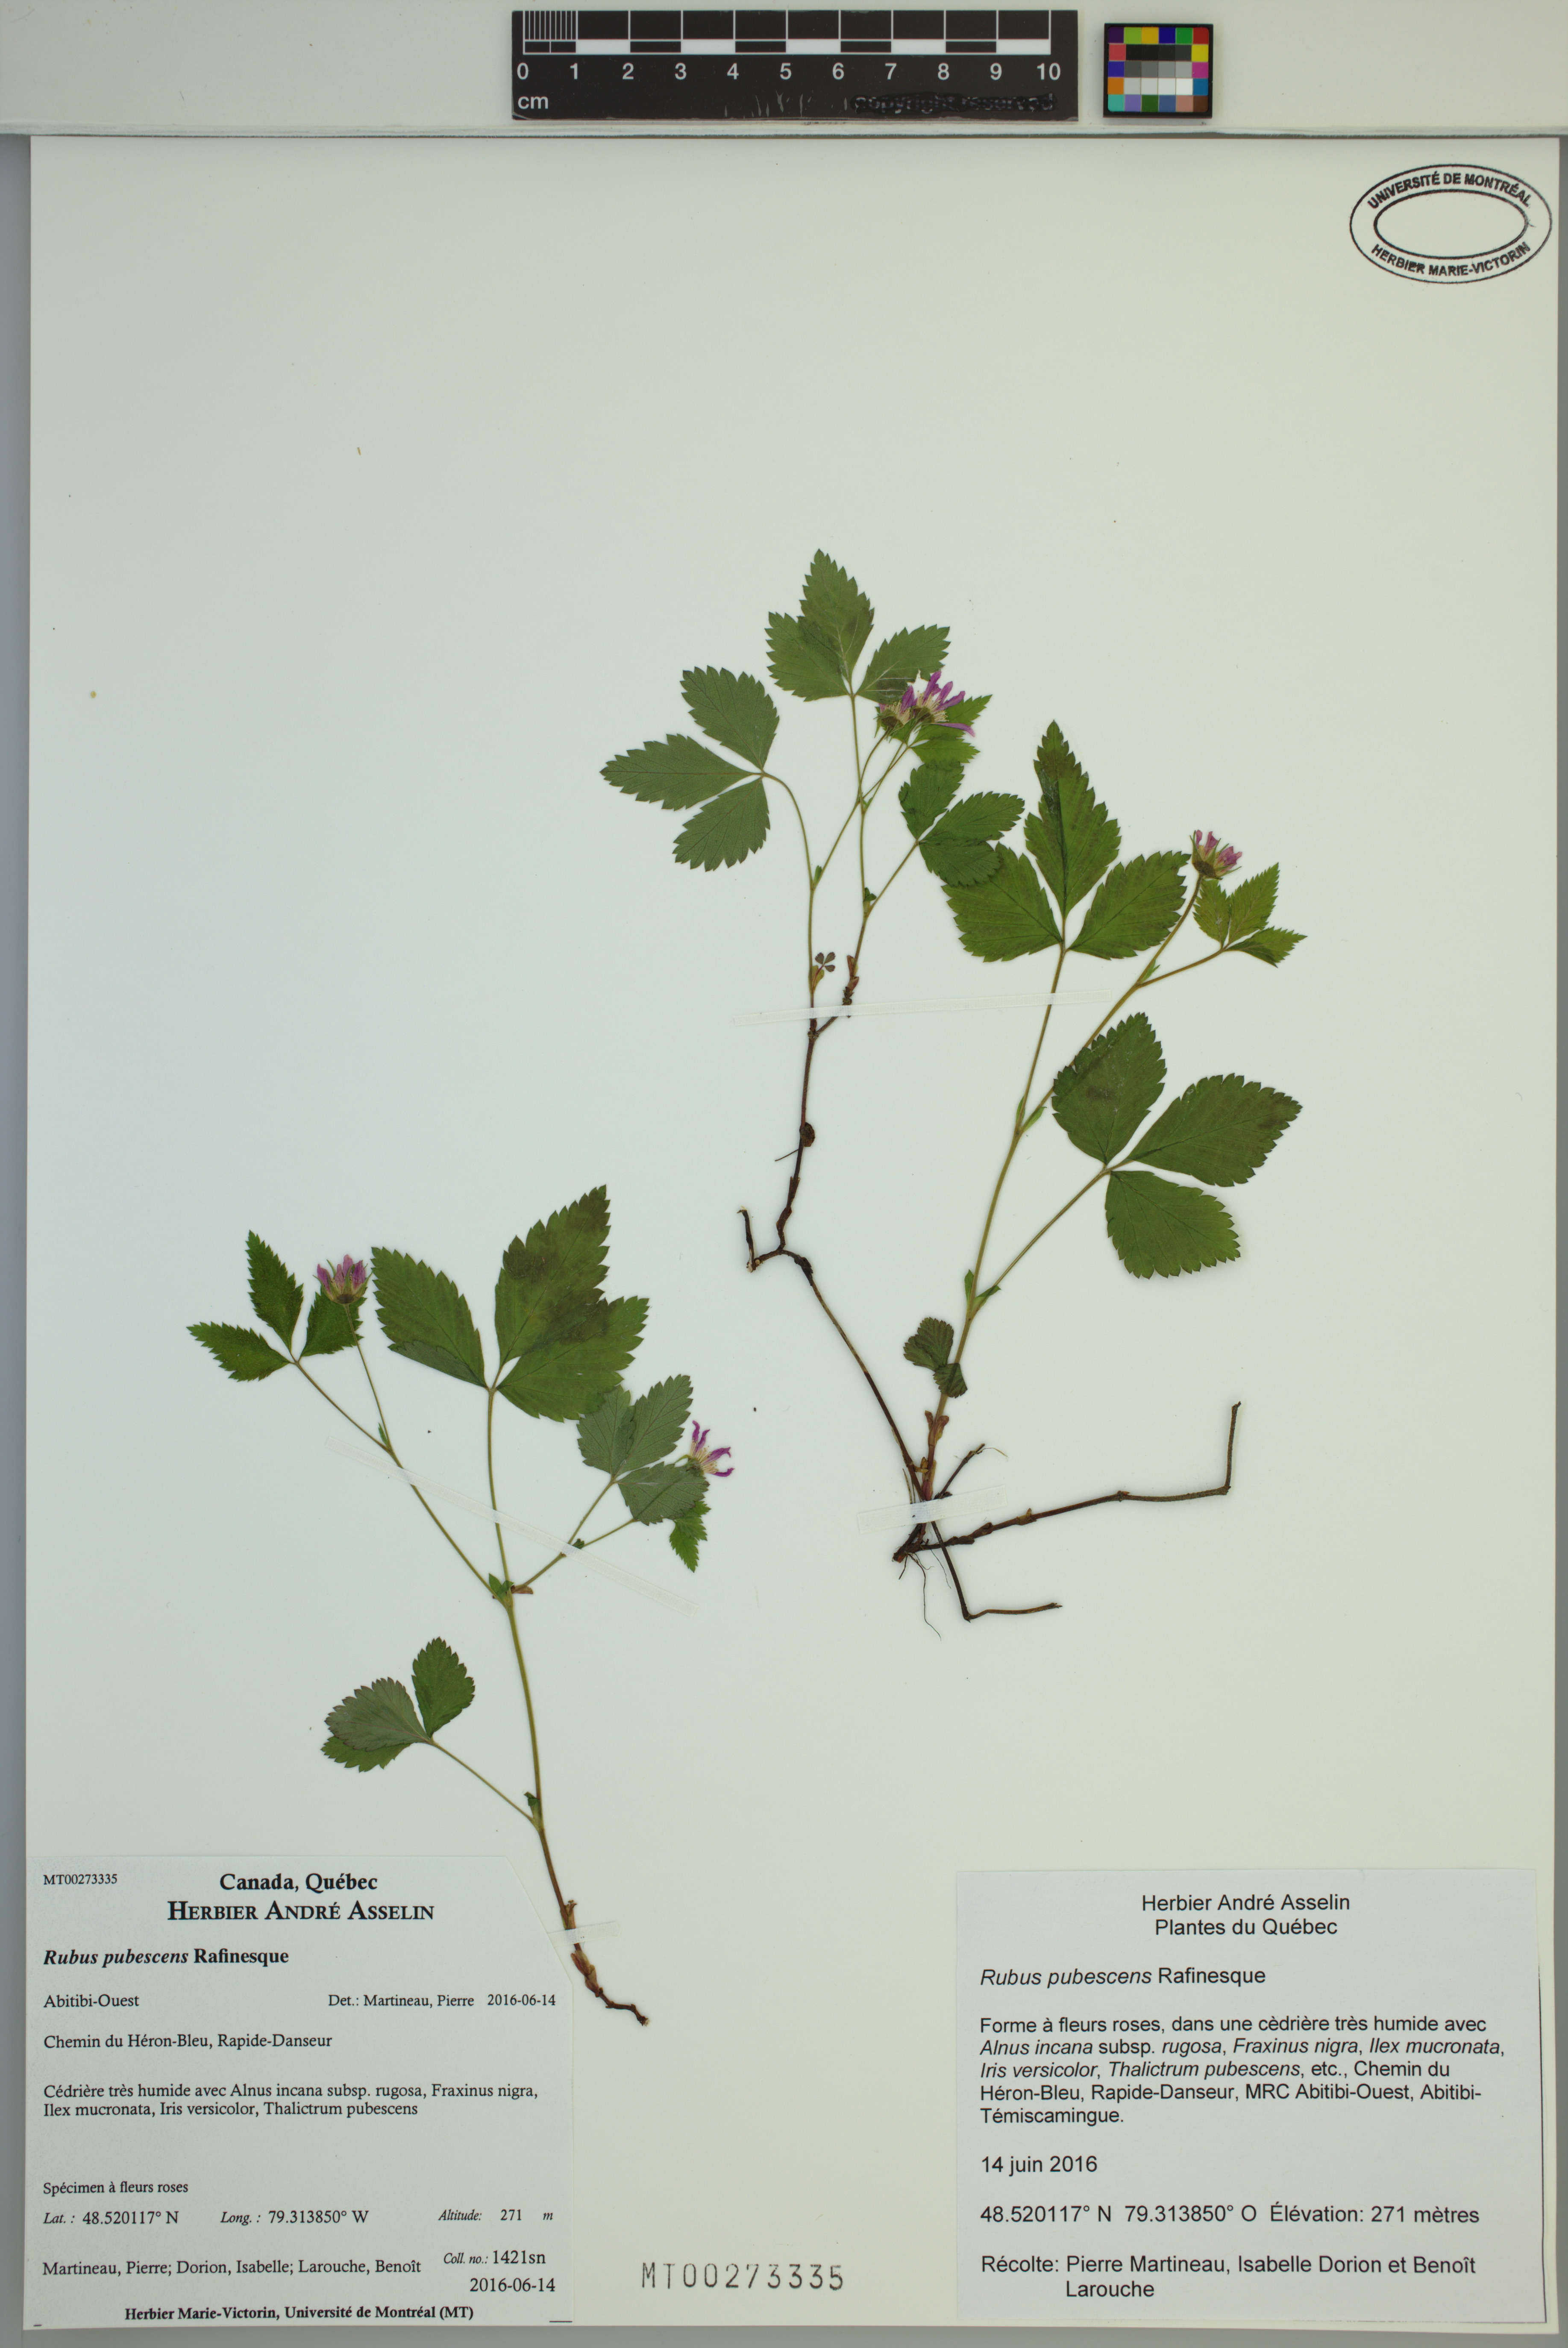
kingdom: Plantae
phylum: Tracheophyta
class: Magnoliopsida
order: Rosales
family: Rosaceae
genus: Rubus
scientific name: Rubus pubescens
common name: Dwarf raspberry
